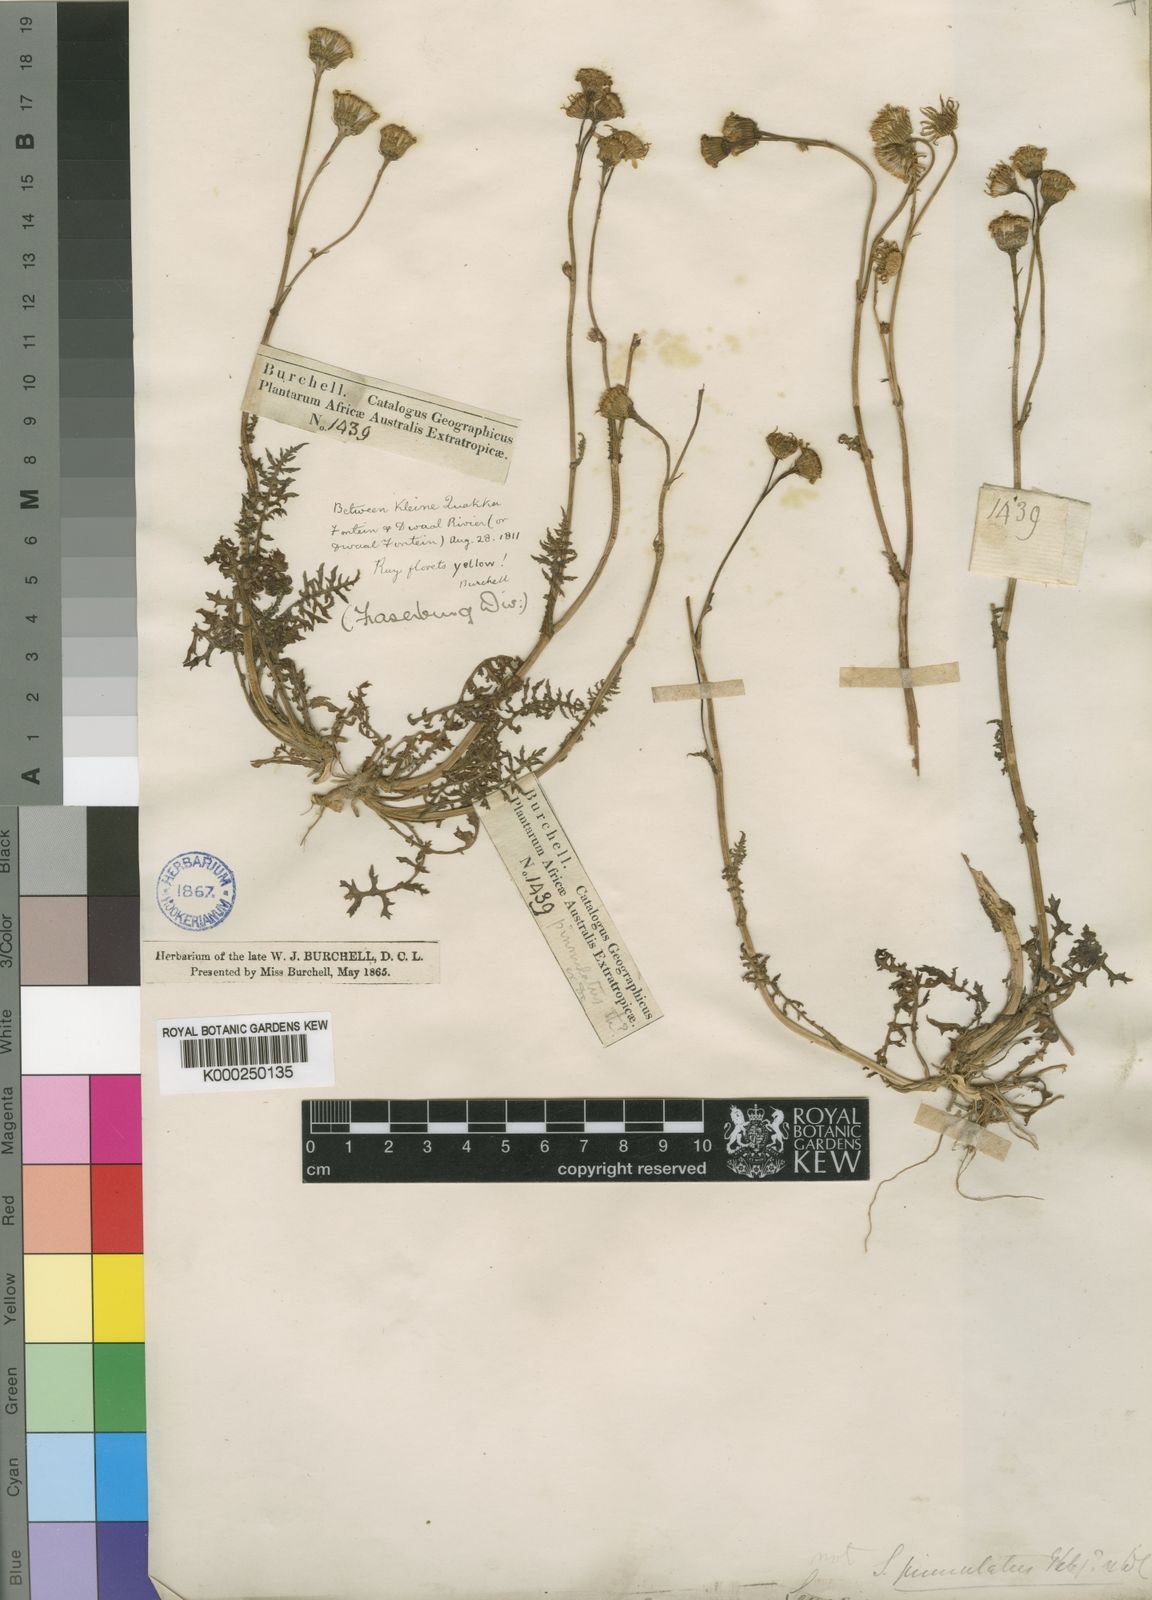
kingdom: Plantae
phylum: Tracheophyta
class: Magnoliopsida
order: Asterales
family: Asteraceae
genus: Senecio
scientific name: Senecio inaequidens
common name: Narrow-leaved ragwort
